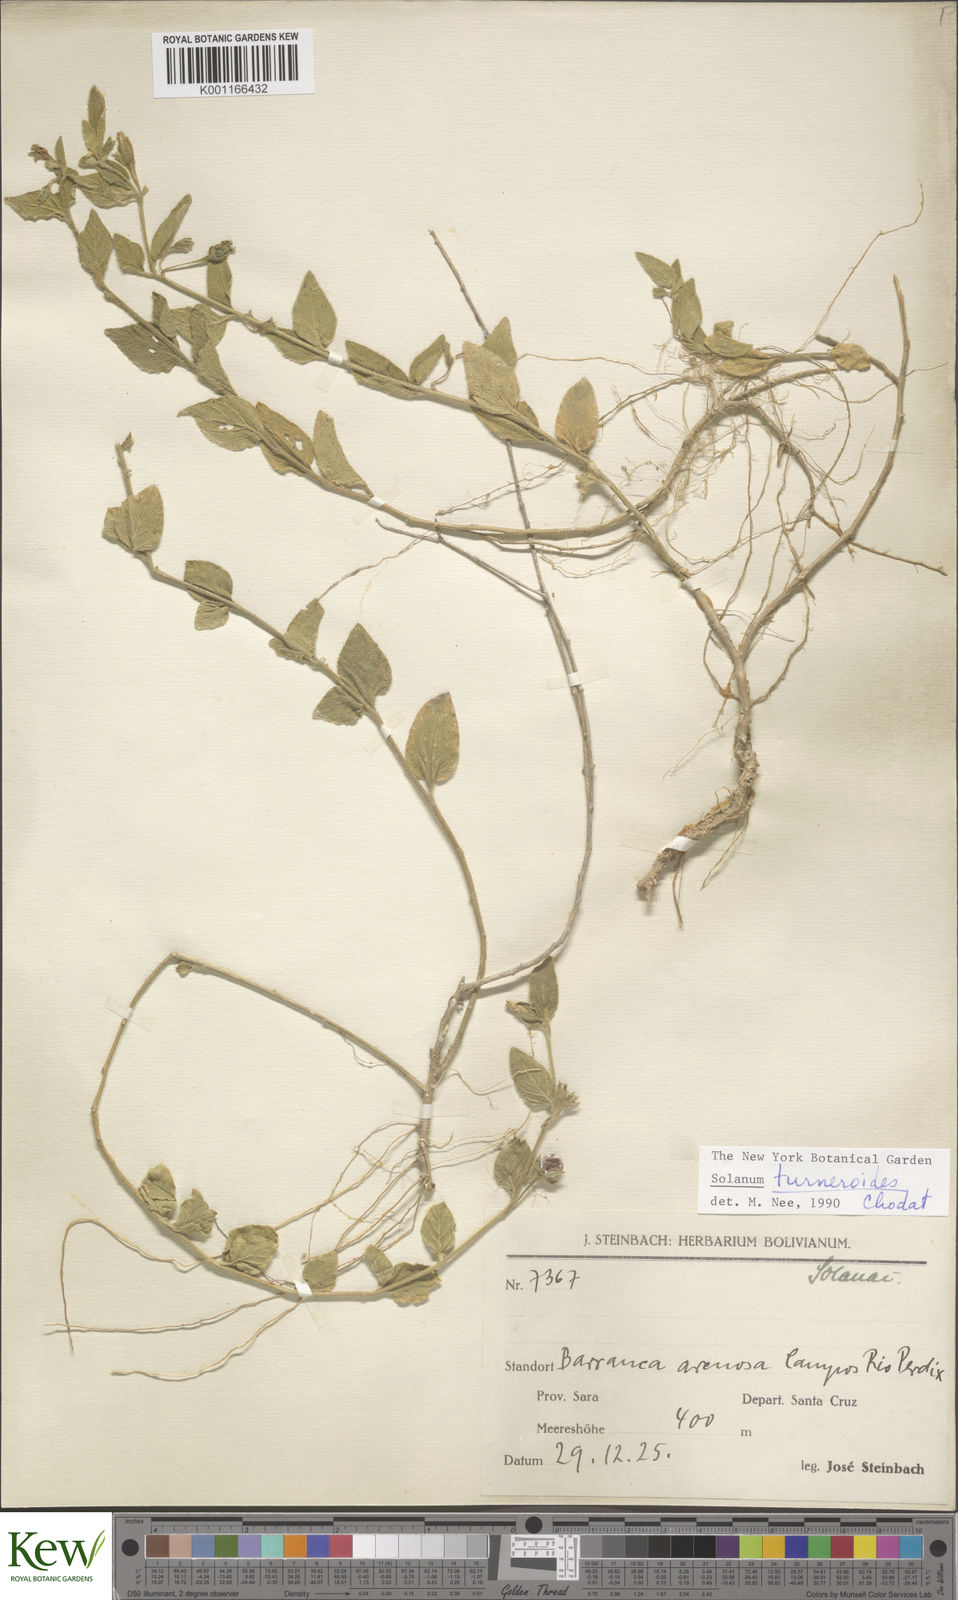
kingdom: Plantae
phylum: Tracheophyta
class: Magnoliopsida
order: Solanales
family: Solanaceae
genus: Solanum
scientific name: Solanum turneroides
